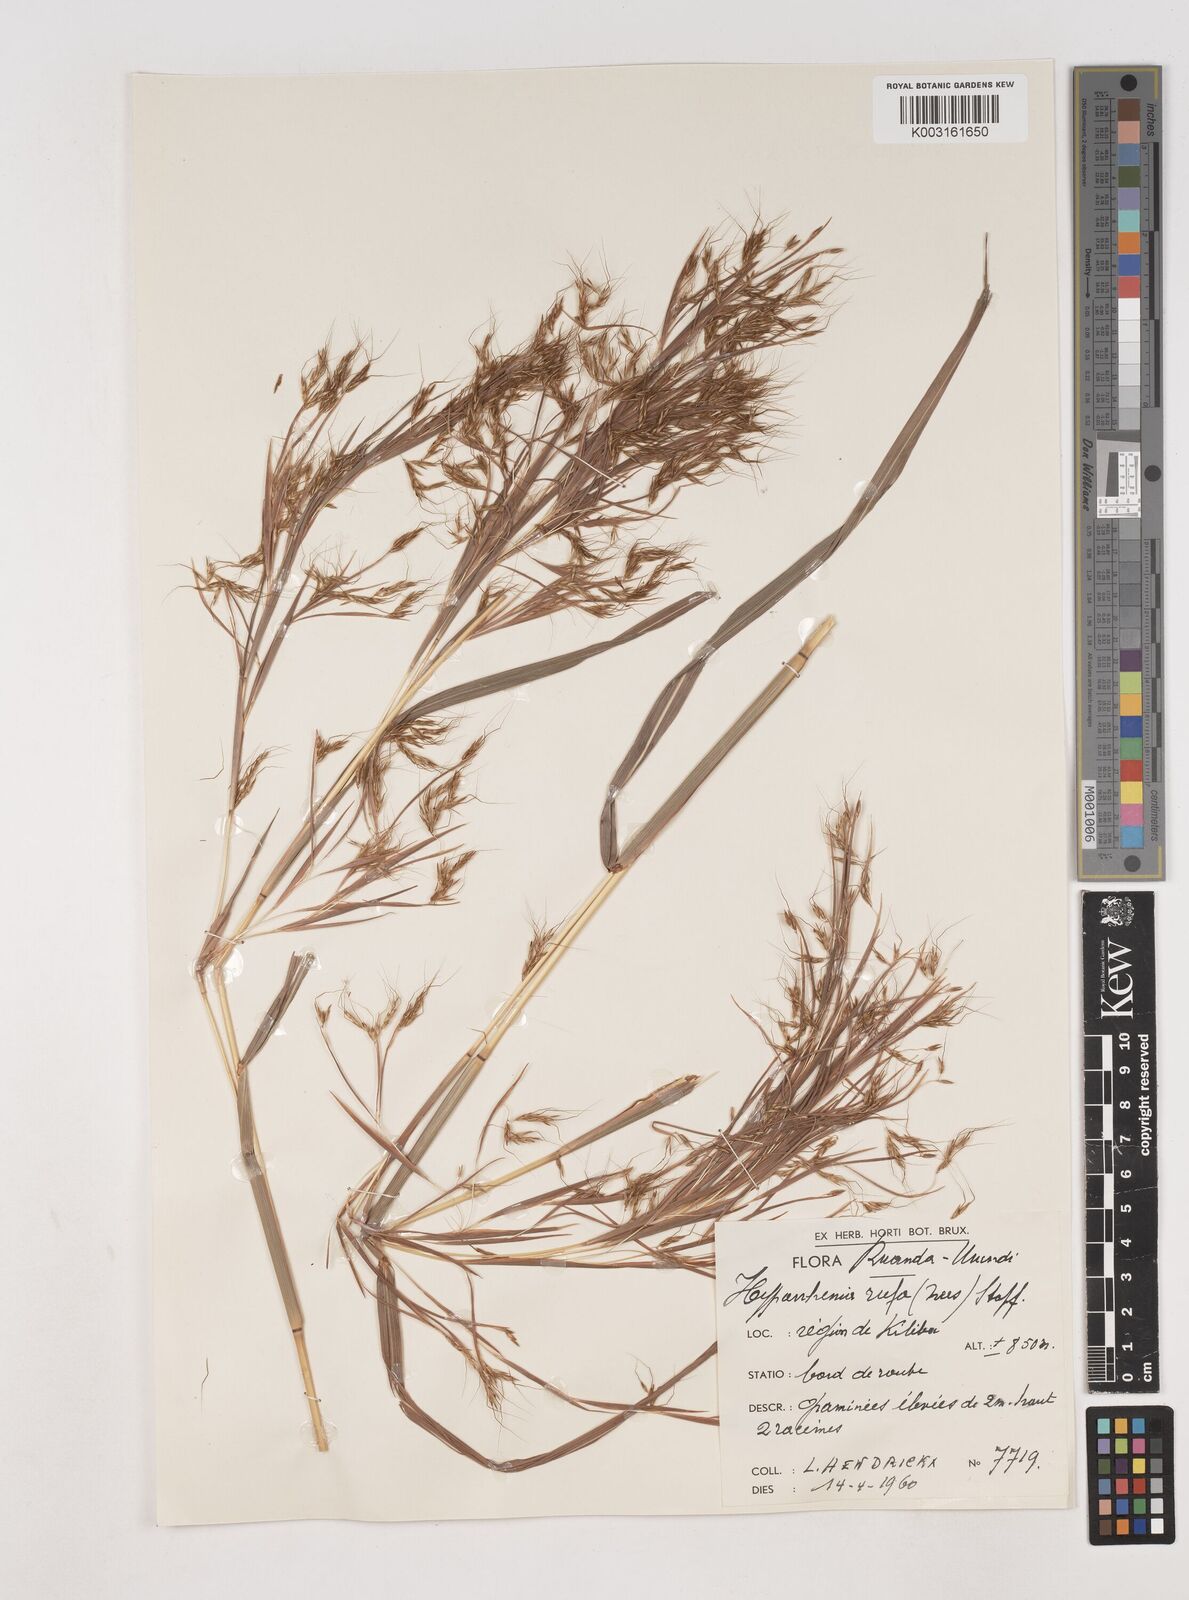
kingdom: Plantae
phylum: Tracheophyta
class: Liliopsida
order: Poales
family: Poaceae
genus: Hyparrhenia
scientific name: Hyparrhenia rufa
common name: Jaraguagrass
